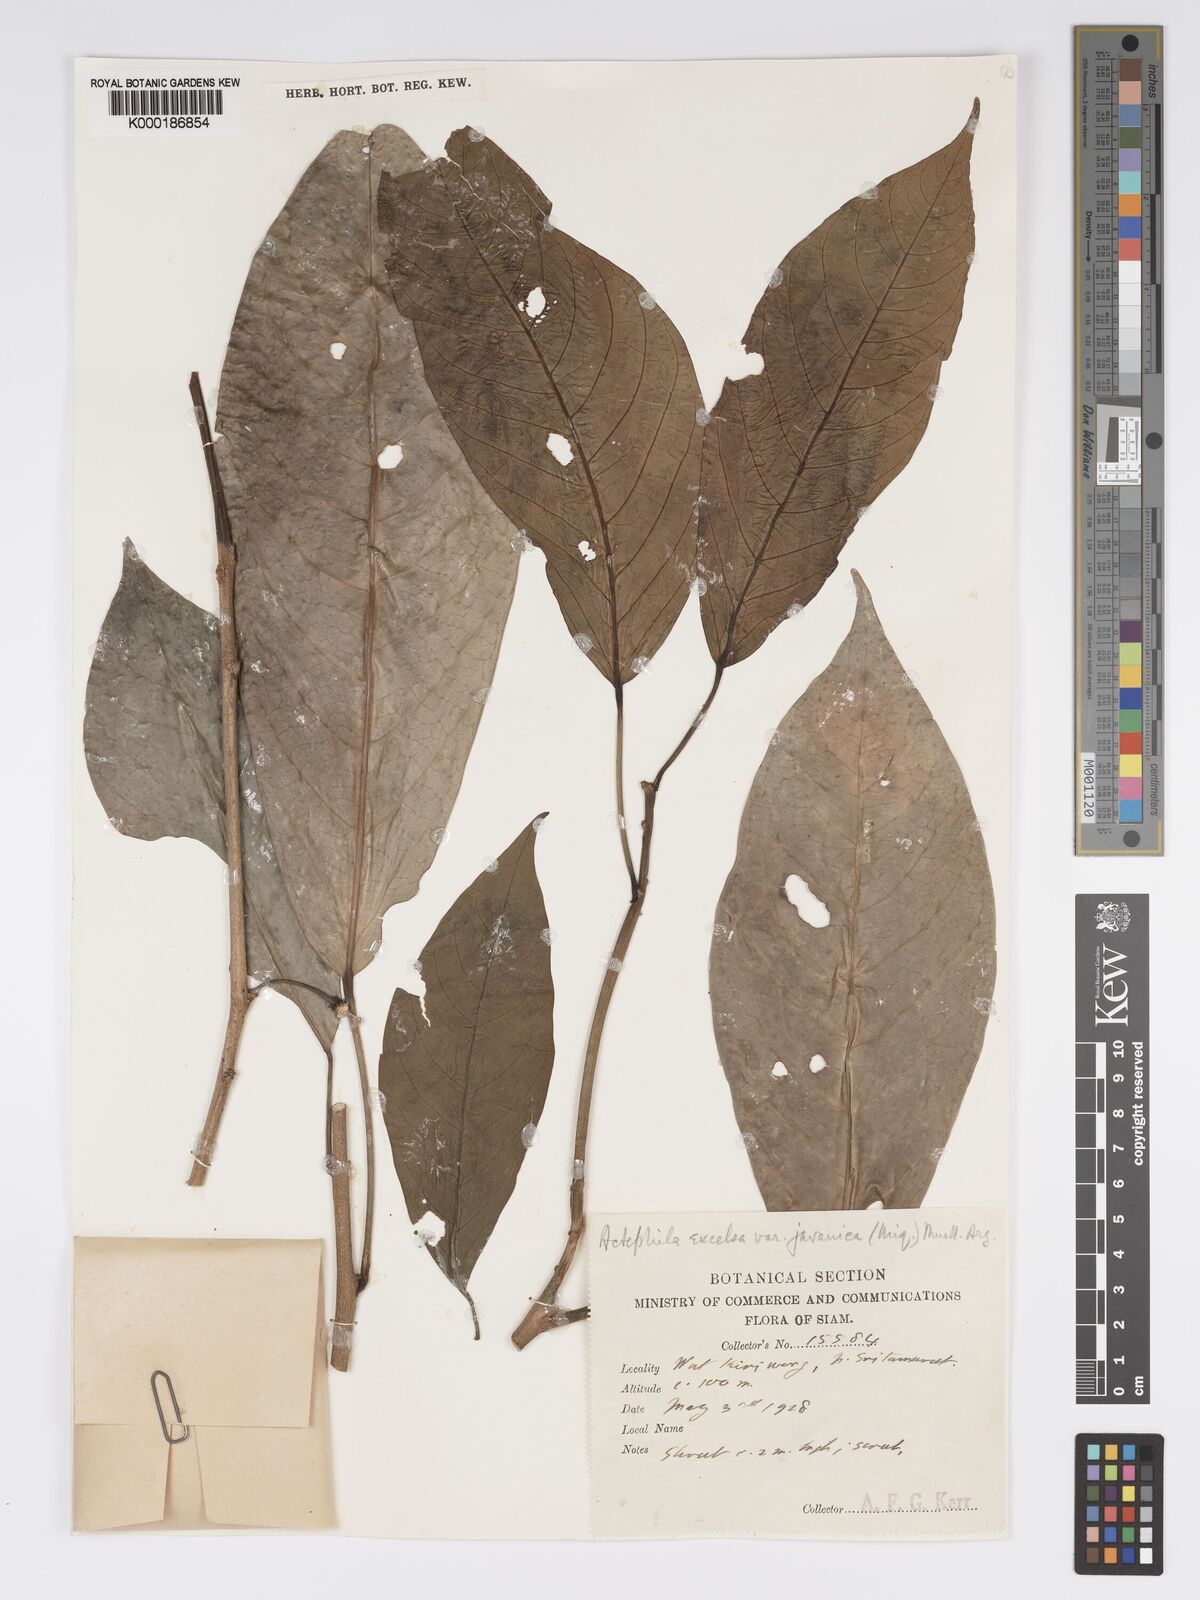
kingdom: Plantae
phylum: Tracheophyta
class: Magnoliopsida
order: Malpighiales
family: Phyllanthaceae
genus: Actephila
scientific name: Actephila
